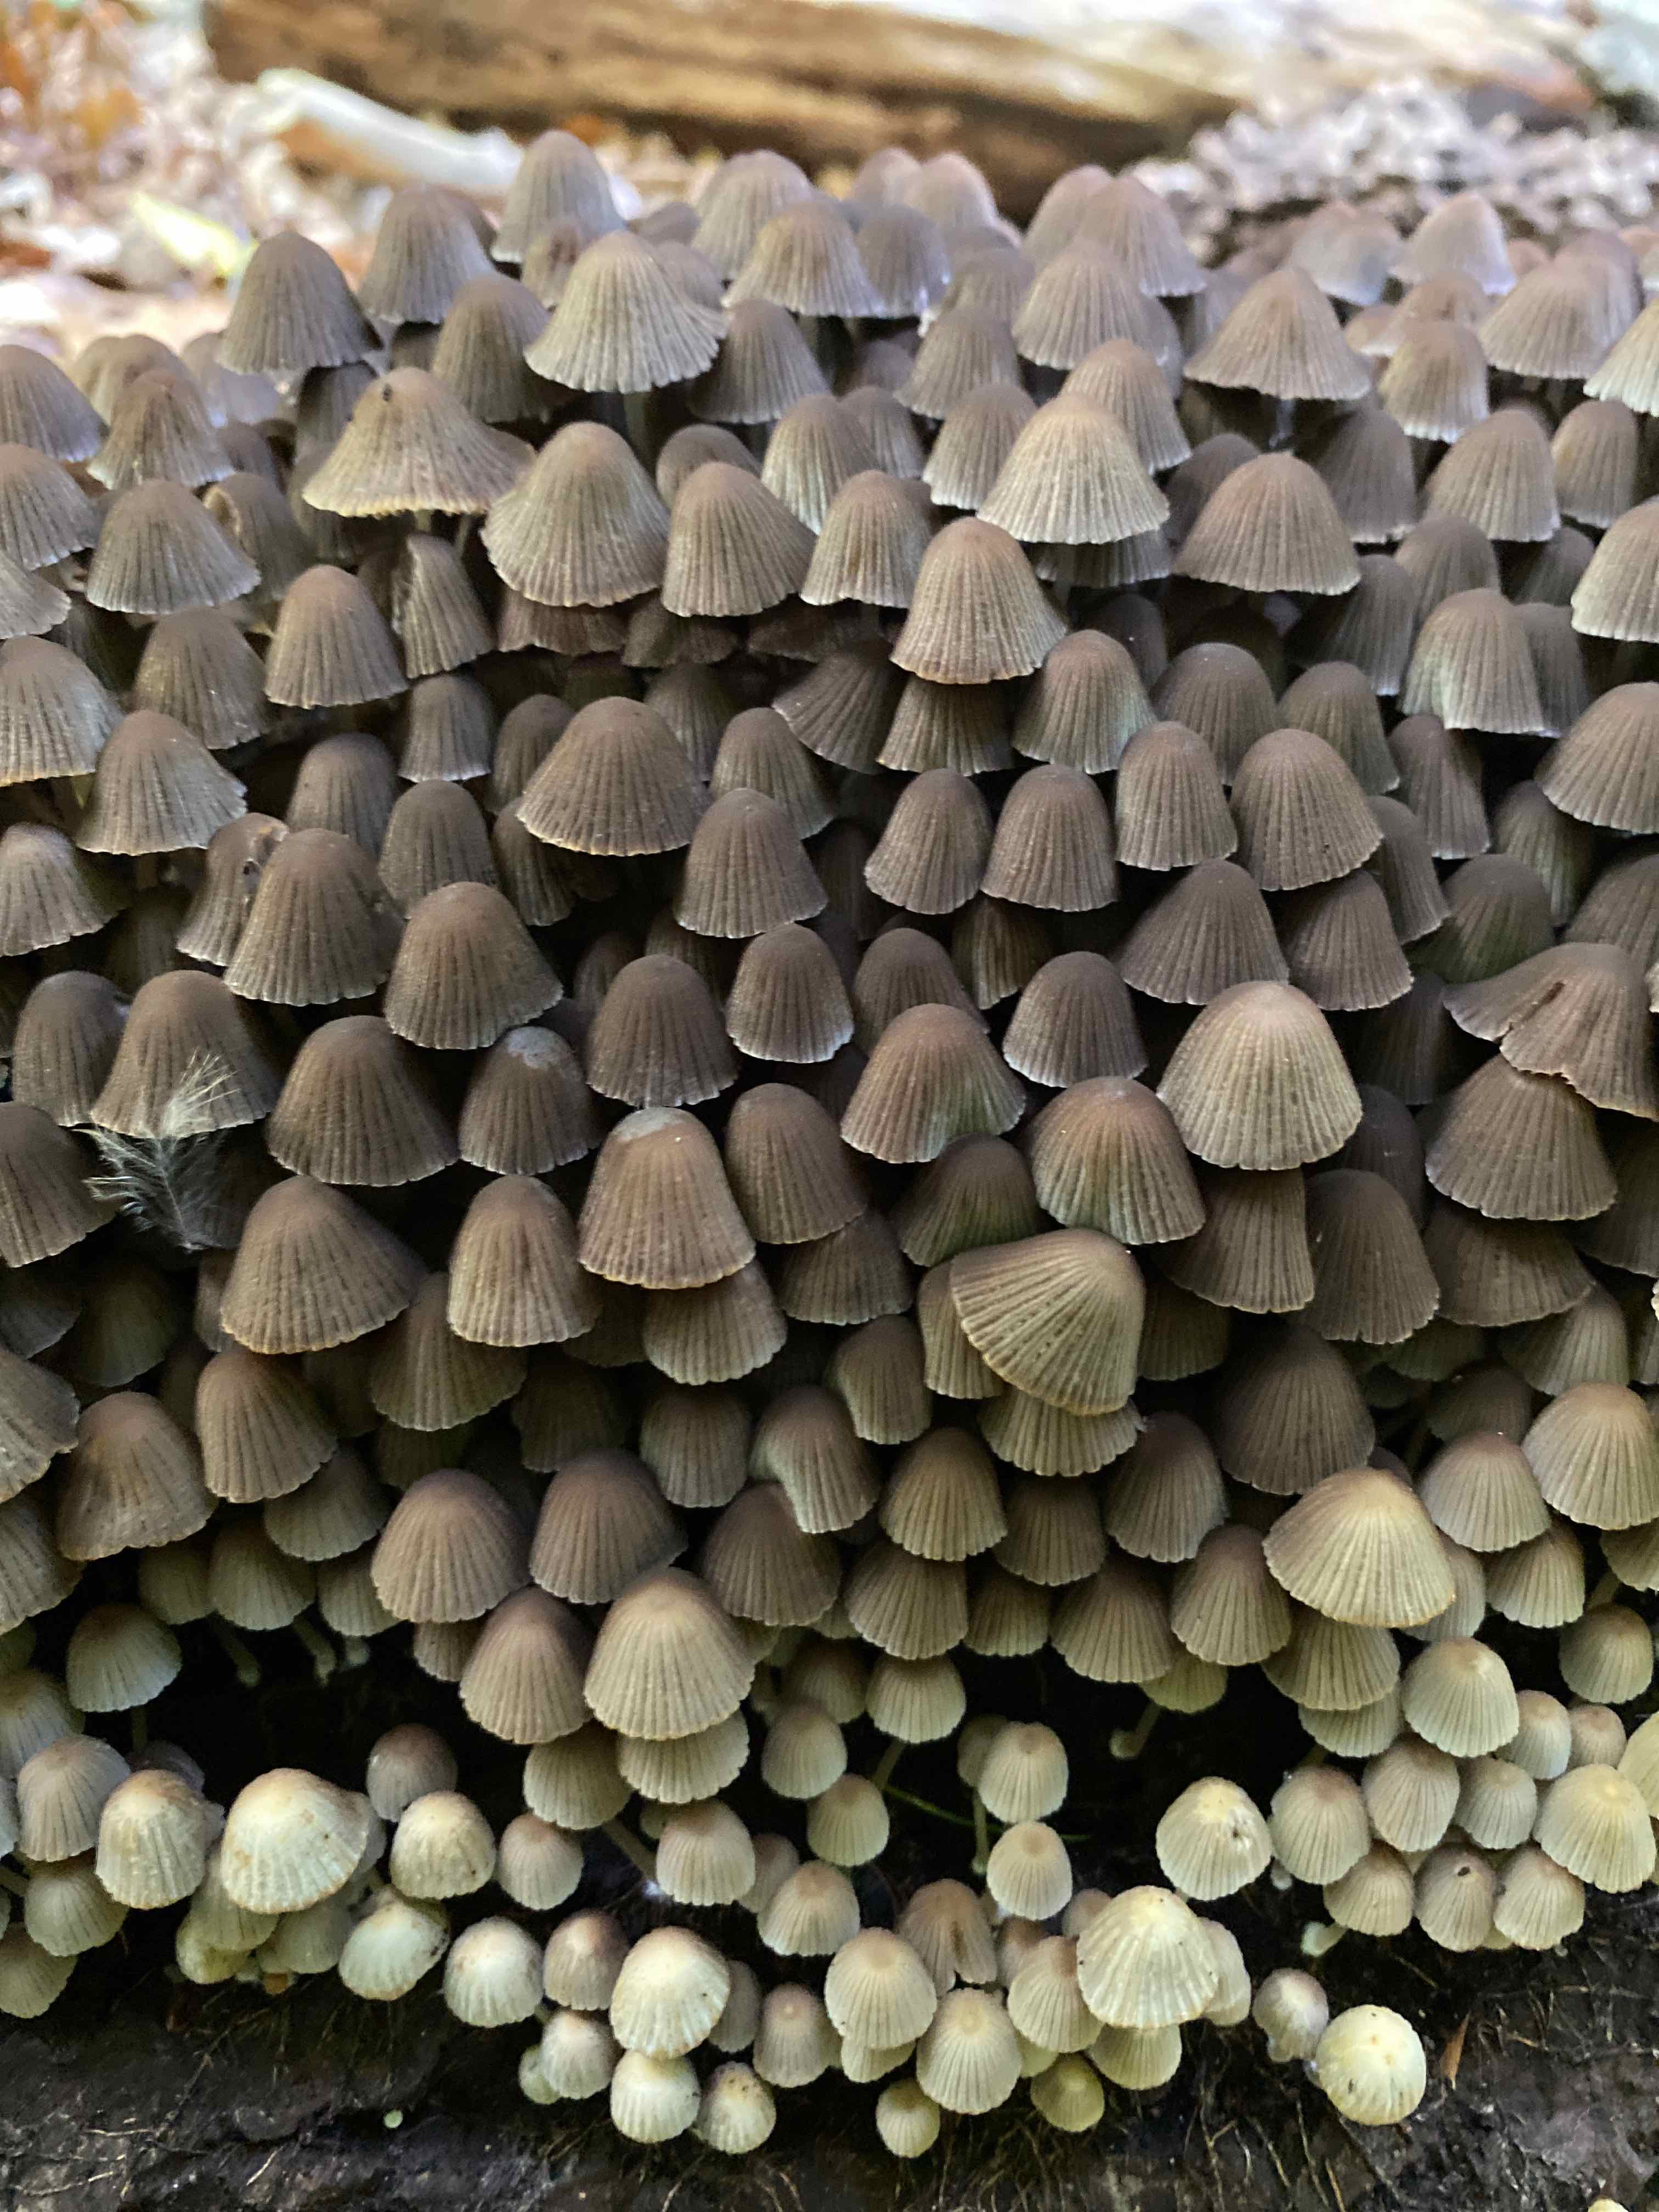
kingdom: Fungi
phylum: Basidiomycota
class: Agaricomycetes
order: Agaricales
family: Psathyrellaceae
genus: Coprinellus
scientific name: Coprinellus disseminatus
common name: bredsået blækhat
